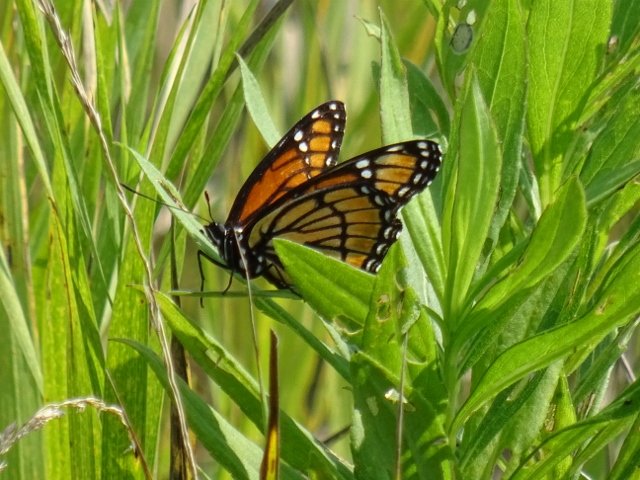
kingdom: Animalia
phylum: Arthropoda
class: Insecta
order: Lepidoptera
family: Nymphalidae
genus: Limenitis
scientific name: Limenitis archippus
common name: Viceroy
